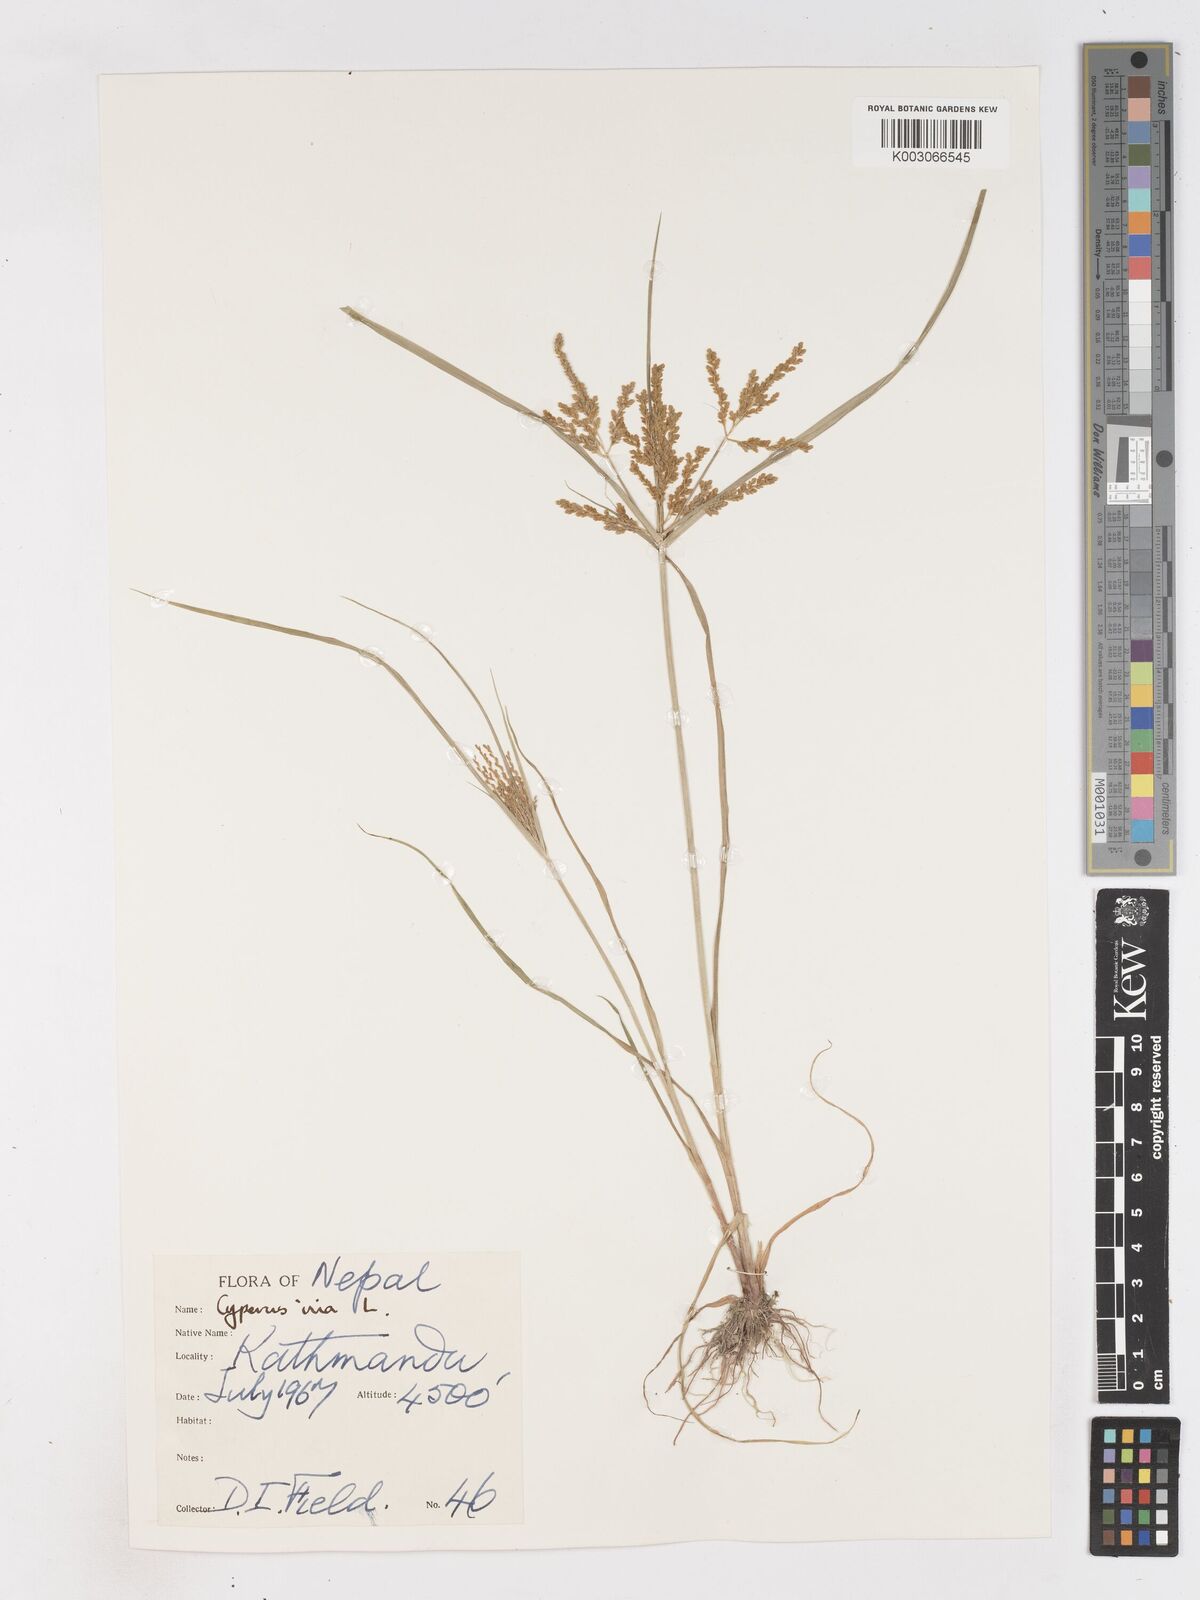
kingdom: Plantae
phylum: Tracheophyta
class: Liliopsida
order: Poales
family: Cyperaceae
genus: Cyperus
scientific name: Cyperus iria
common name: Ricefield flatsedge
